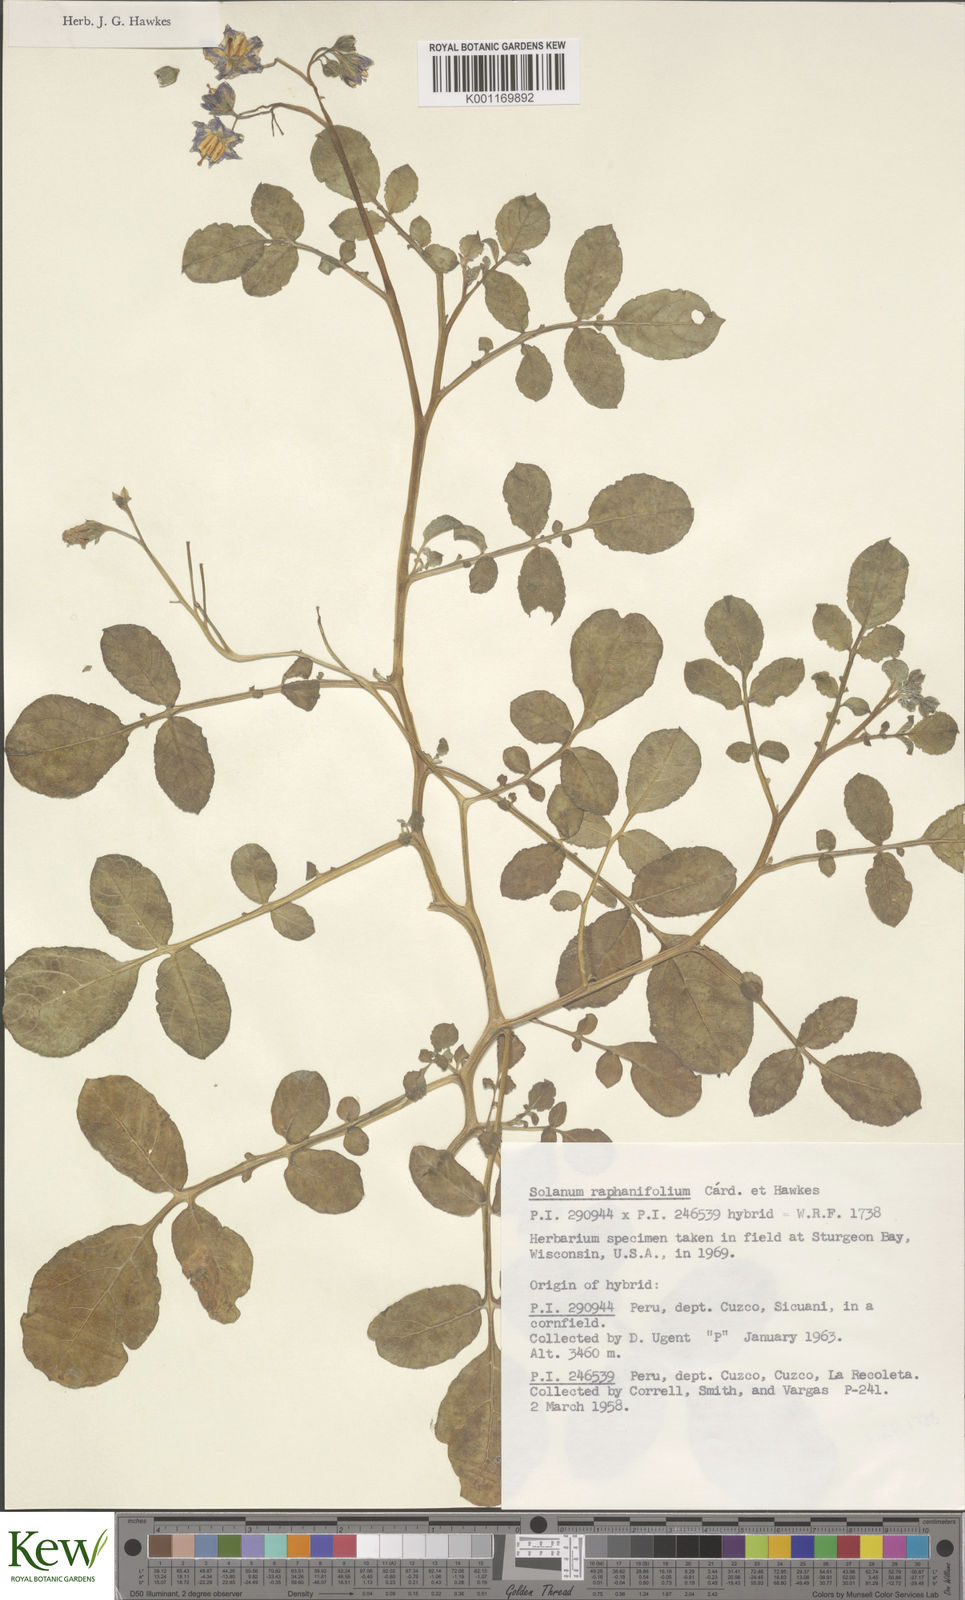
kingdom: Plantae
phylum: Tracheophyta
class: Magnoliopsida
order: Solanales
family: Solanaceae
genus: Solanum
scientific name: Solanum
